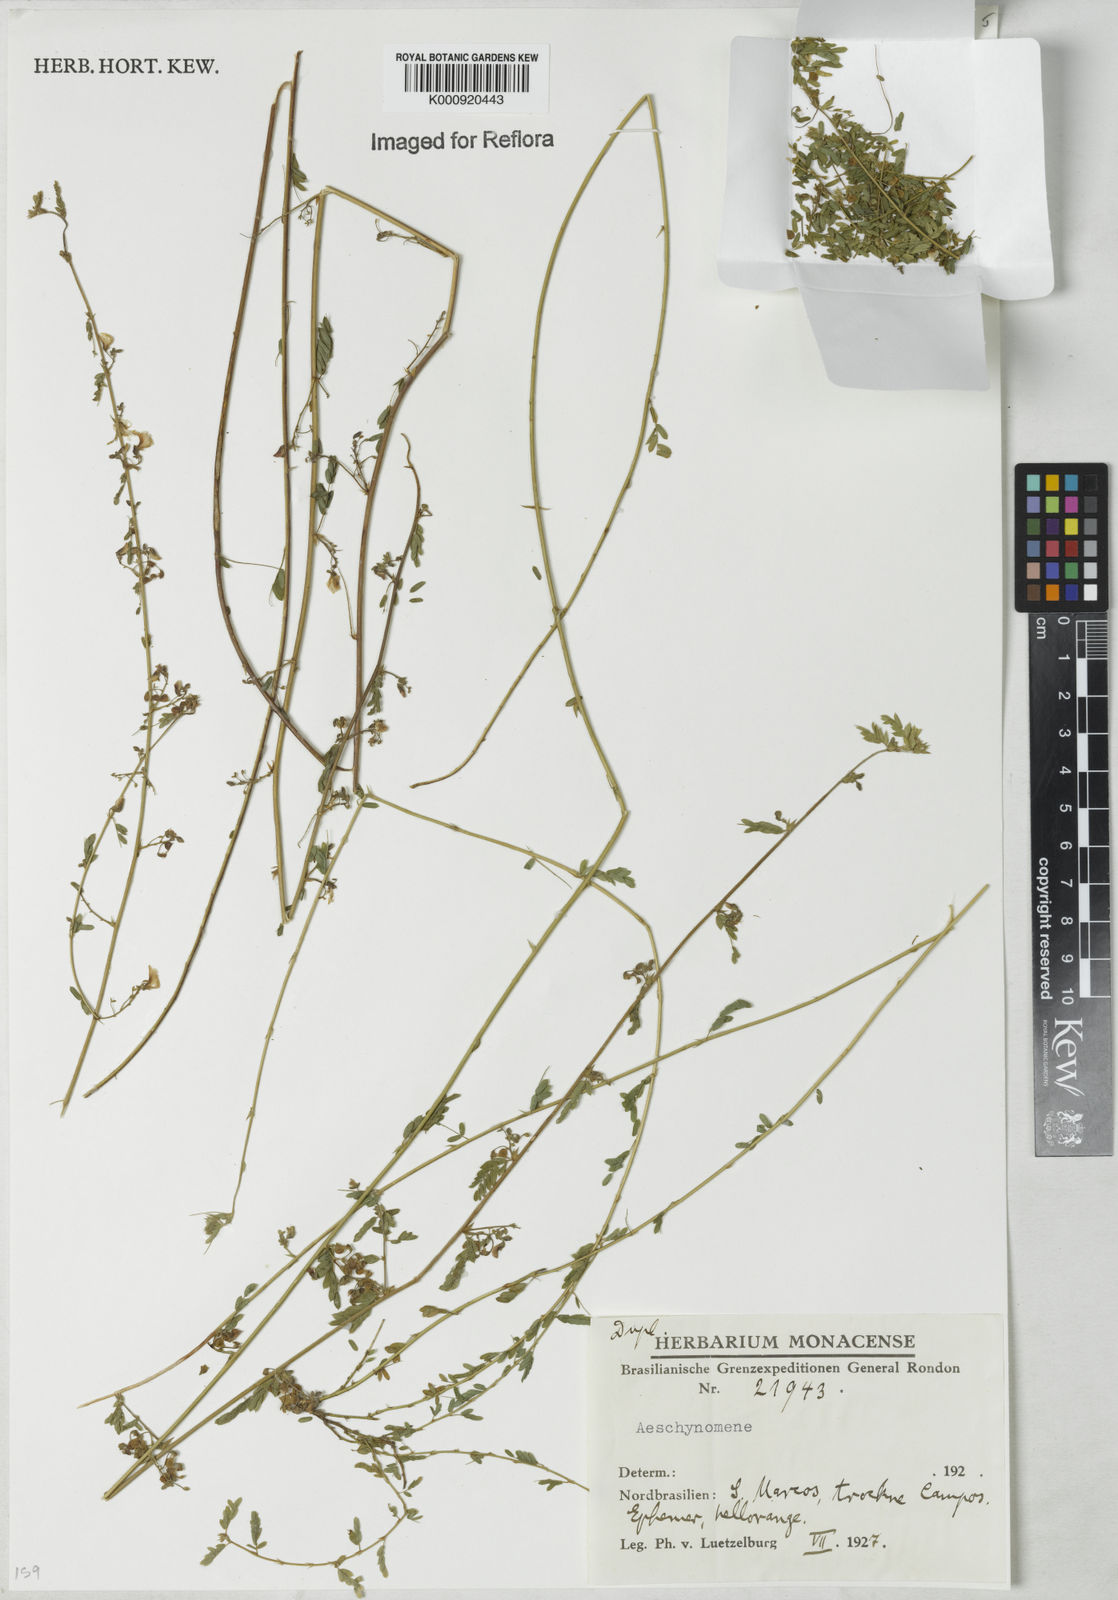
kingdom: Plantae
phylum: Tracheophyta
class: Magnoliopsida
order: Fabales
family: Fabaceae
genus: Aeschynomene
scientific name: Aeschynomene
